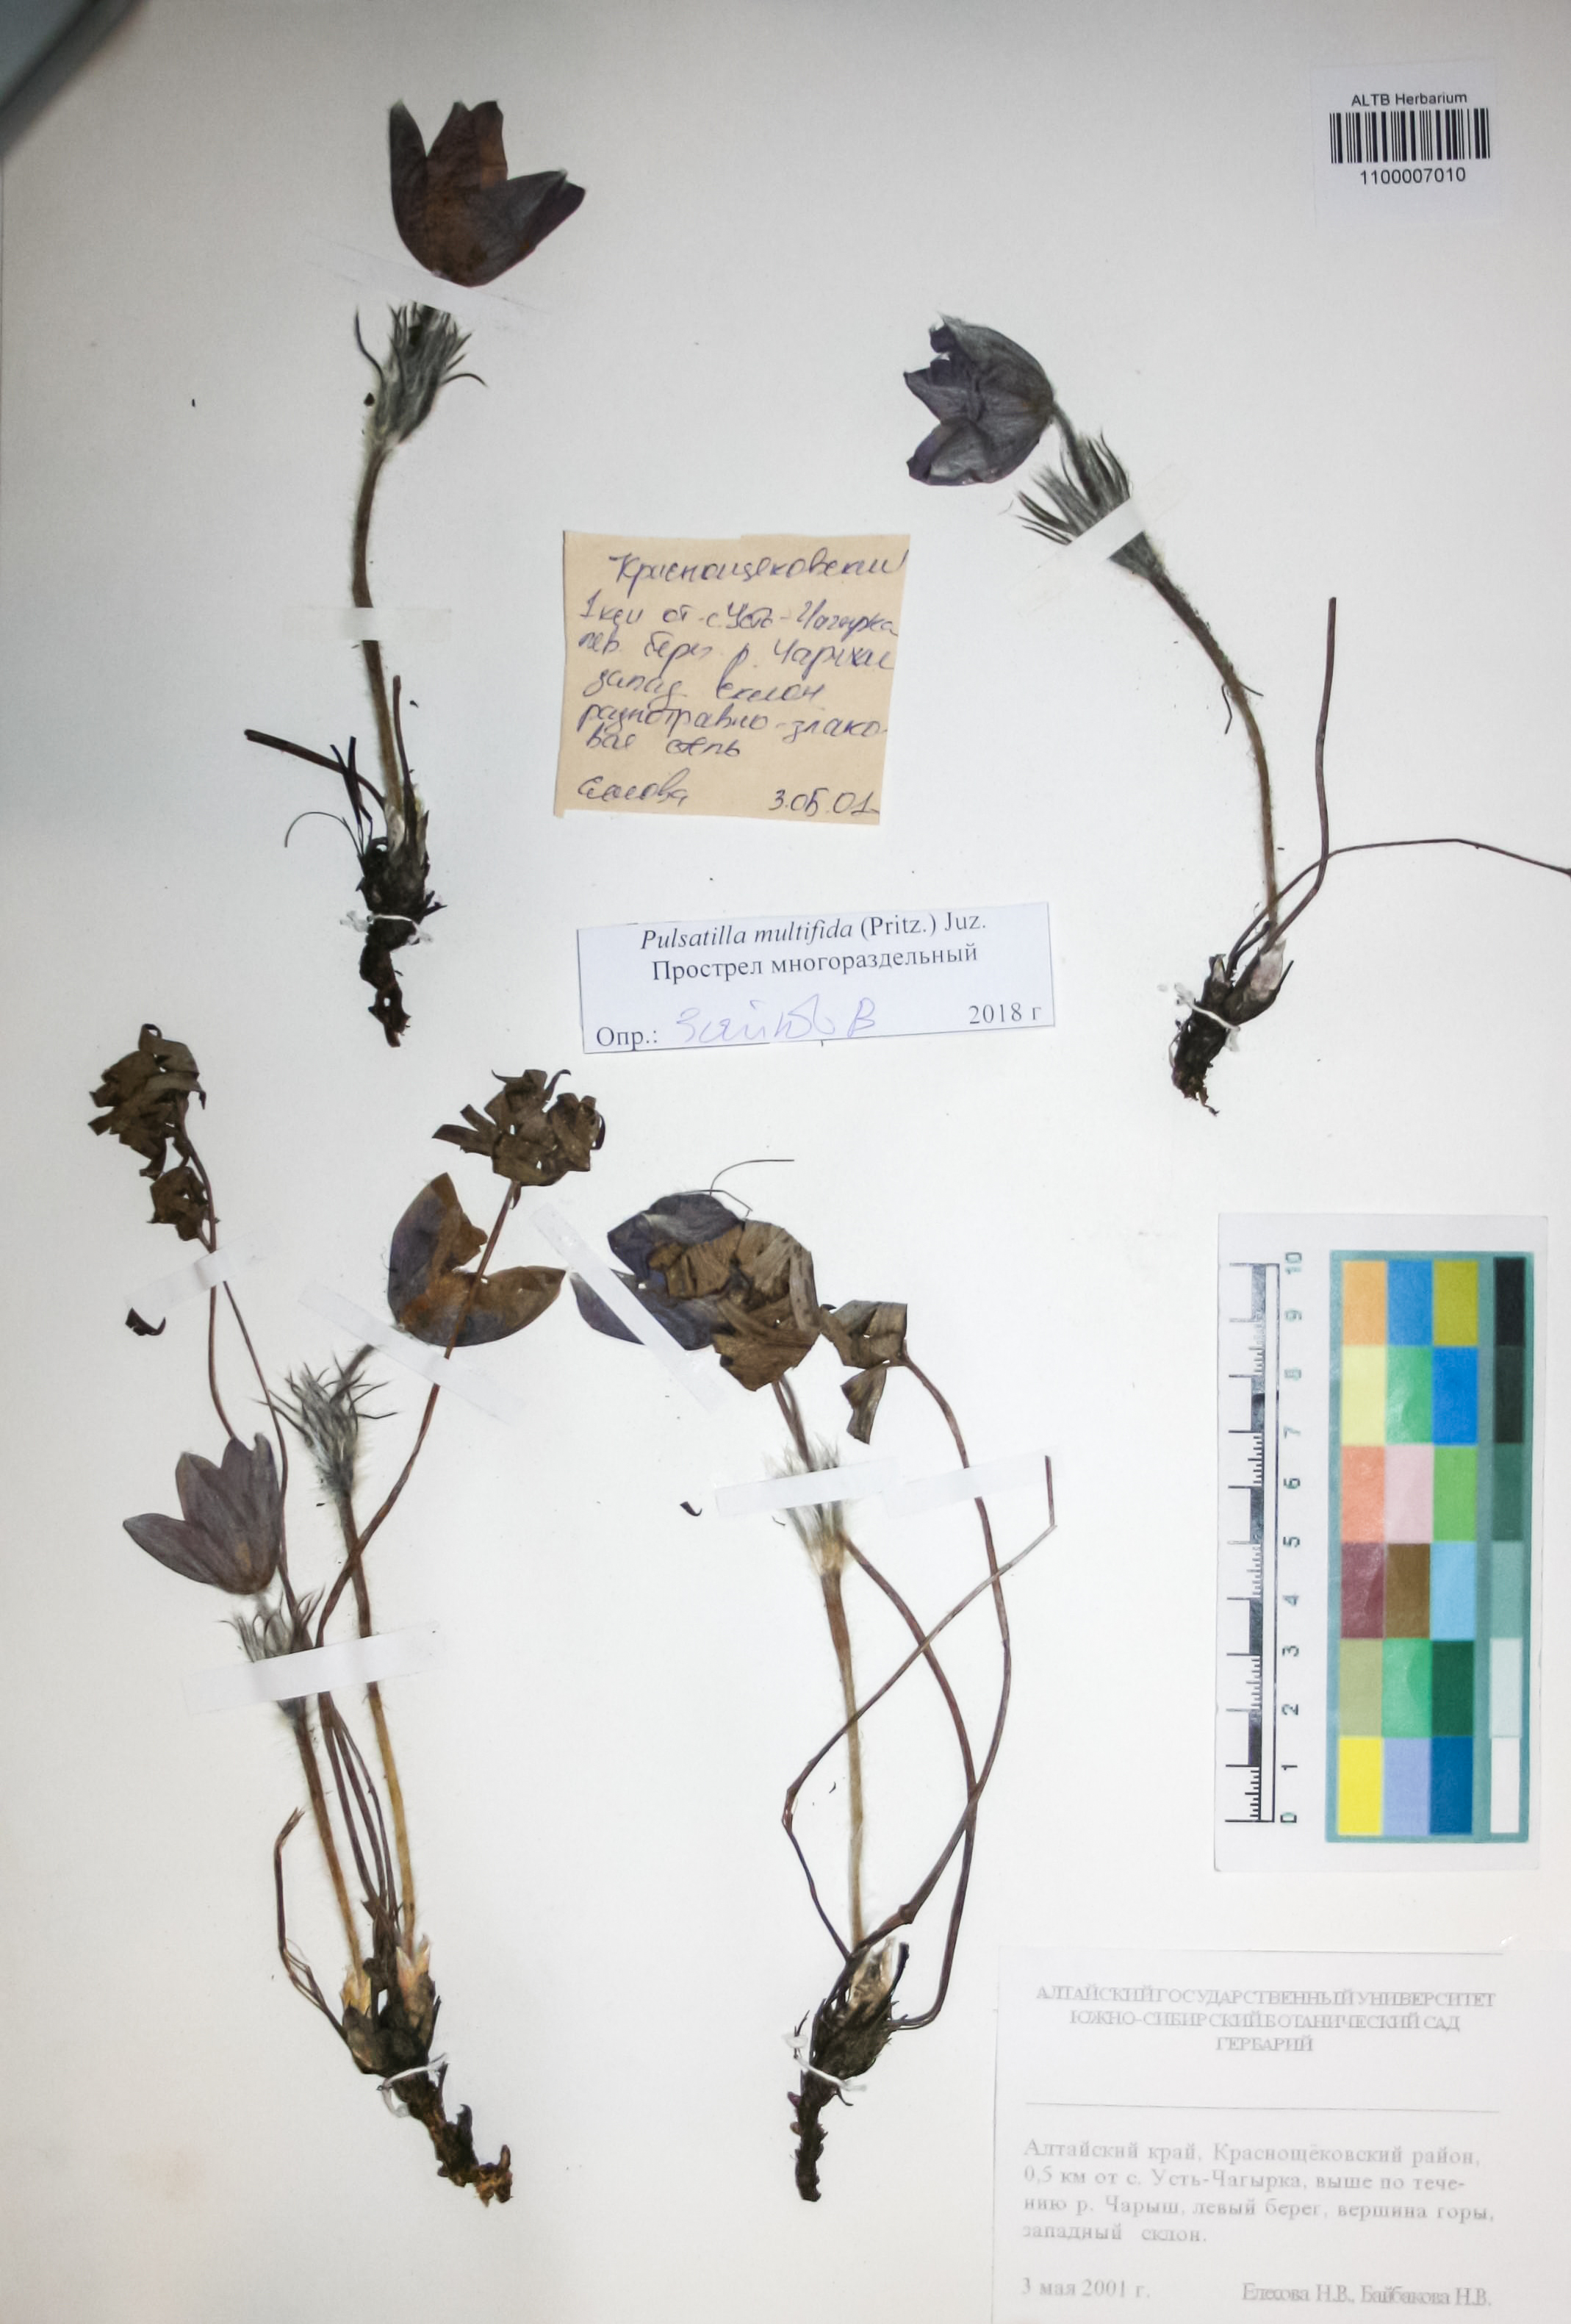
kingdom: Plantae
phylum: Tracheophyta
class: Magnoliopsida
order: Ranunculales
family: Ranunculaceae
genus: Pulsatilla
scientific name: Pulsatilla patens
